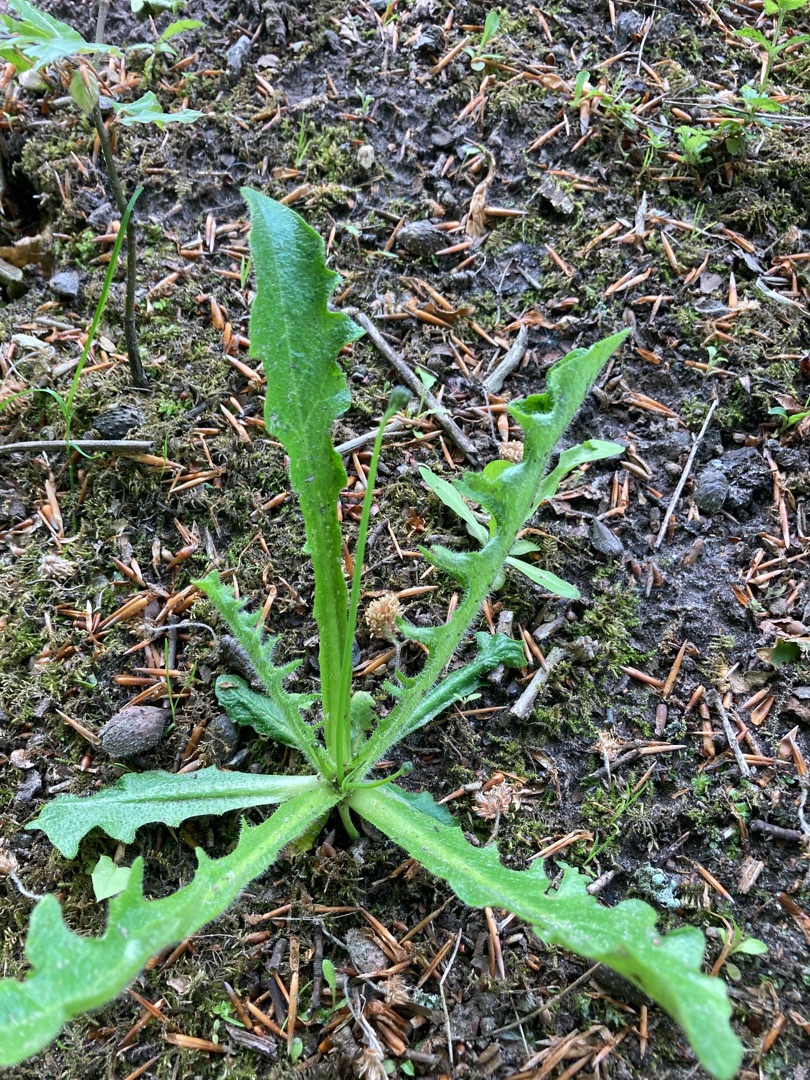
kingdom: Plantae
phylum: Tracheophyta
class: Magnoliopsida
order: Asterales
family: Asteraceae
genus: Hypochaeris
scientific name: Hypochaeris radicata
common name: Almindelig kongepen
